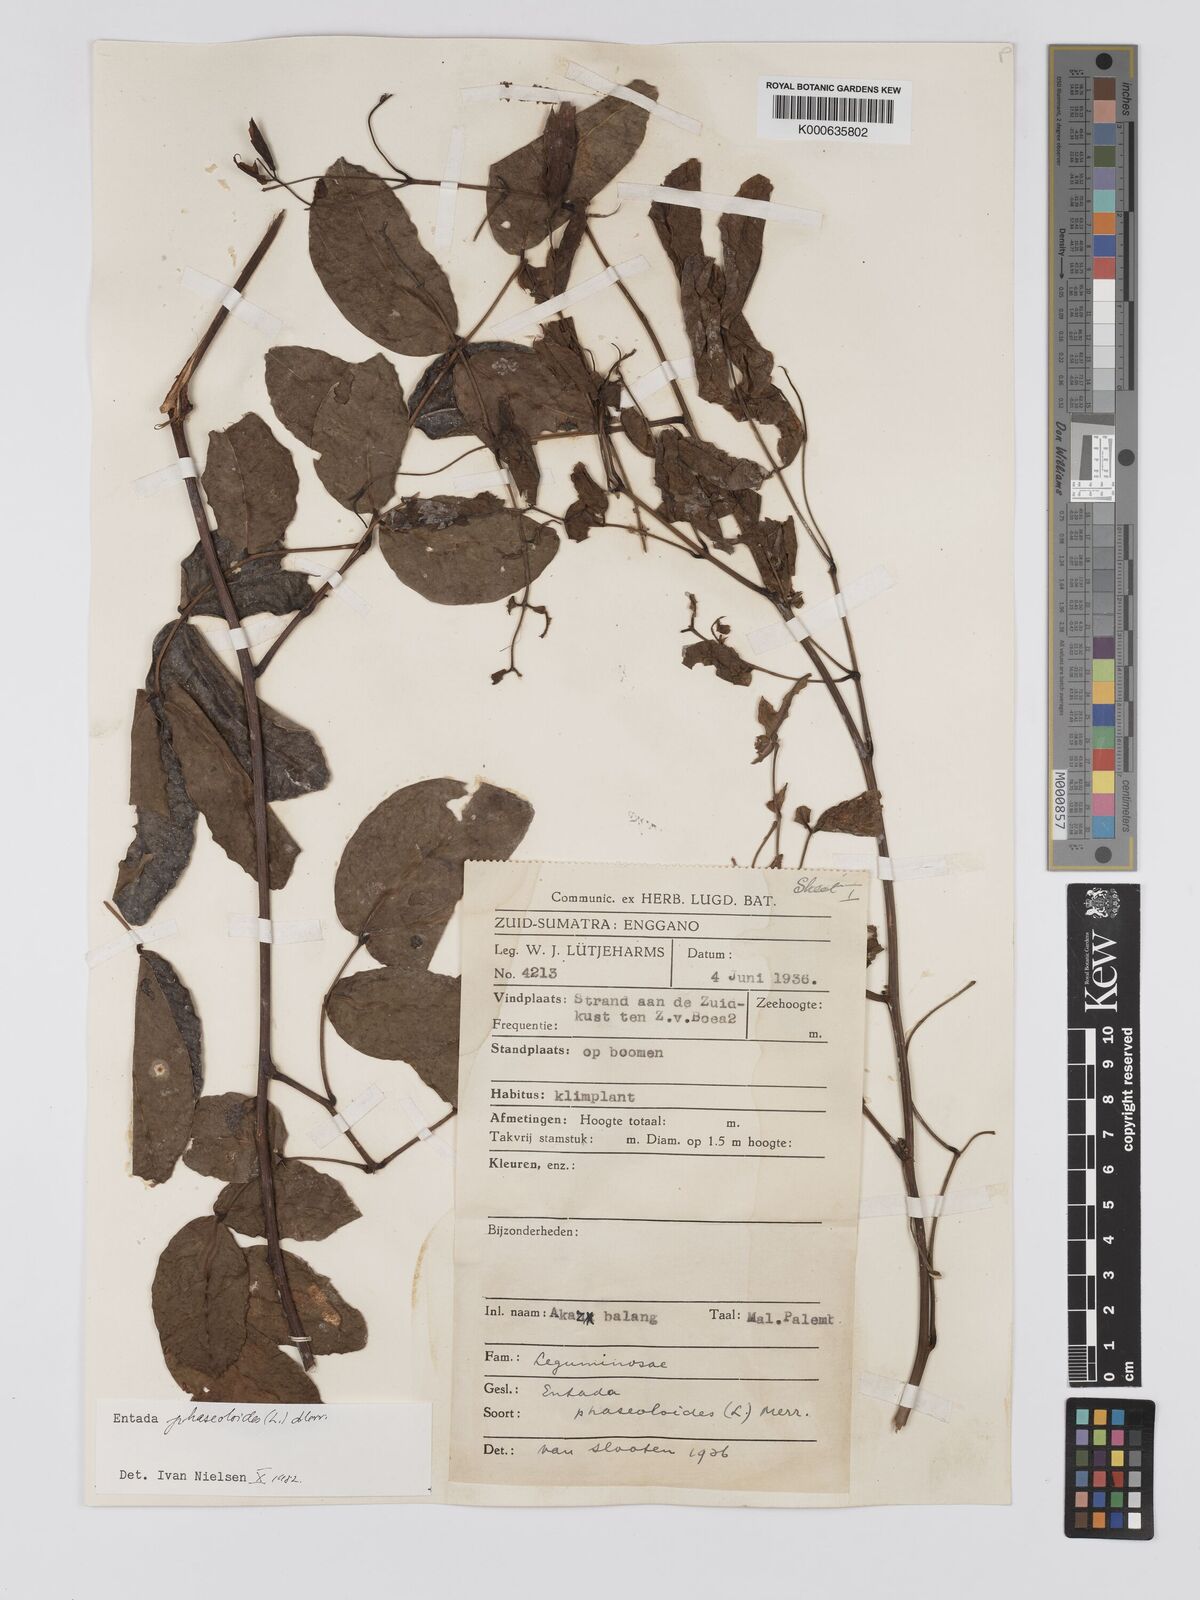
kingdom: Plantae
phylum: Tracheophyta
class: Magnoliopsida
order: Fabales
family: Fabaceae
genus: Entada
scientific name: Entada phaseoloides
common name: Matchbox-bean
